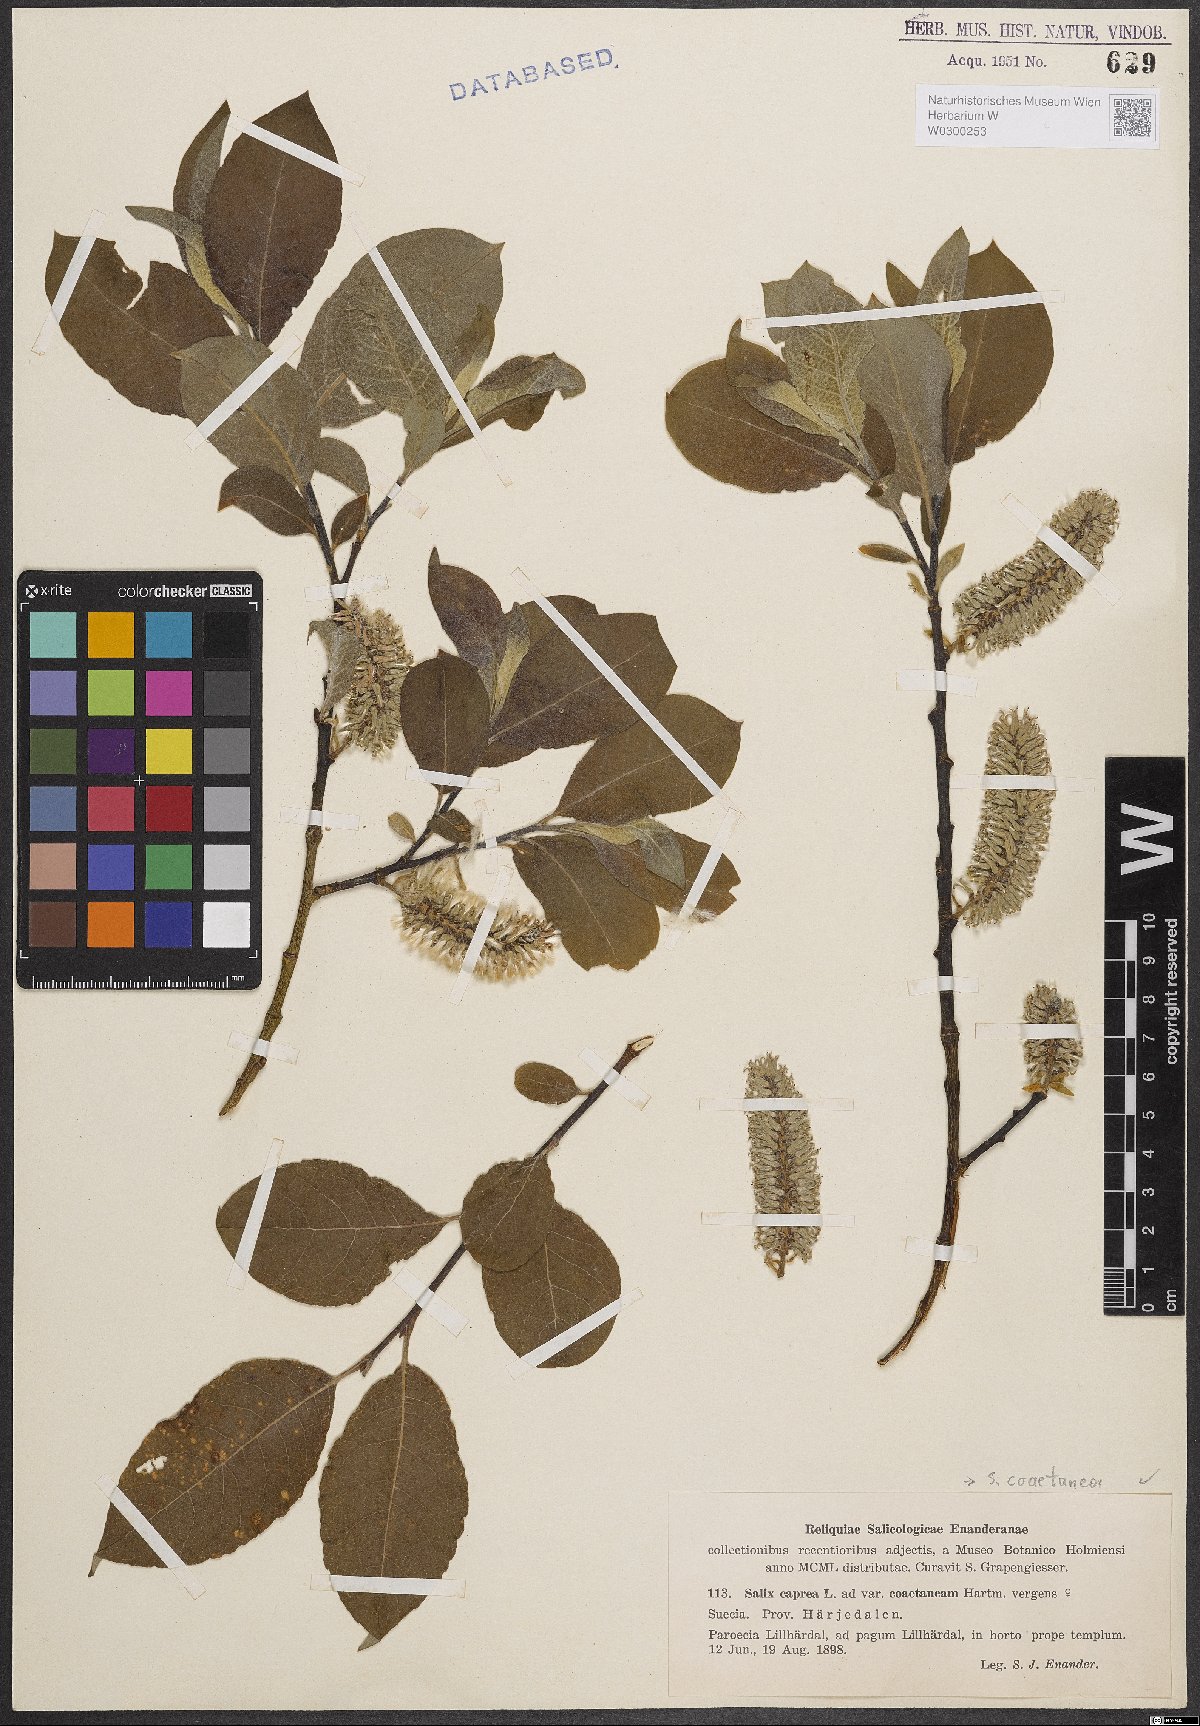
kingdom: Plantae
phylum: Tracheophyta
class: Magnoliopsida
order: Malpighiales
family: Salicaceae
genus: Salix
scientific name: Salix caprea
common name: Goat willow
